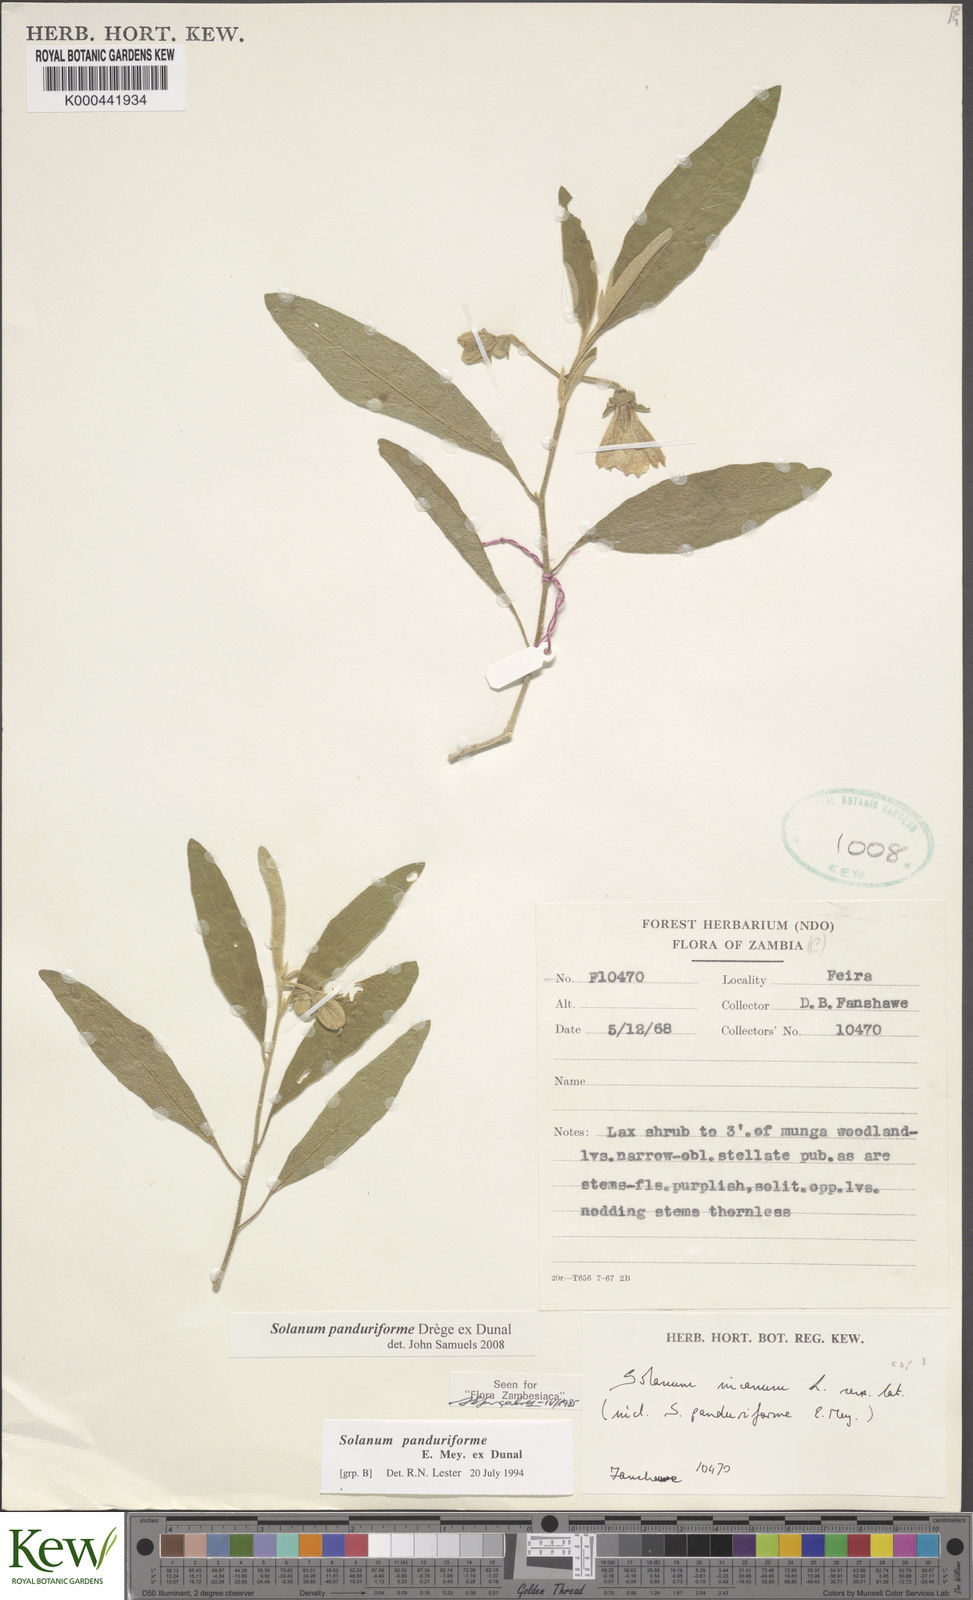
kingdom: Plantae
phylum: Tracheophyta
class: Magnoliopsida
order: Solanales
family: Solanaceae
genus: Solanum
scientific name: Solanum campylacanthum
